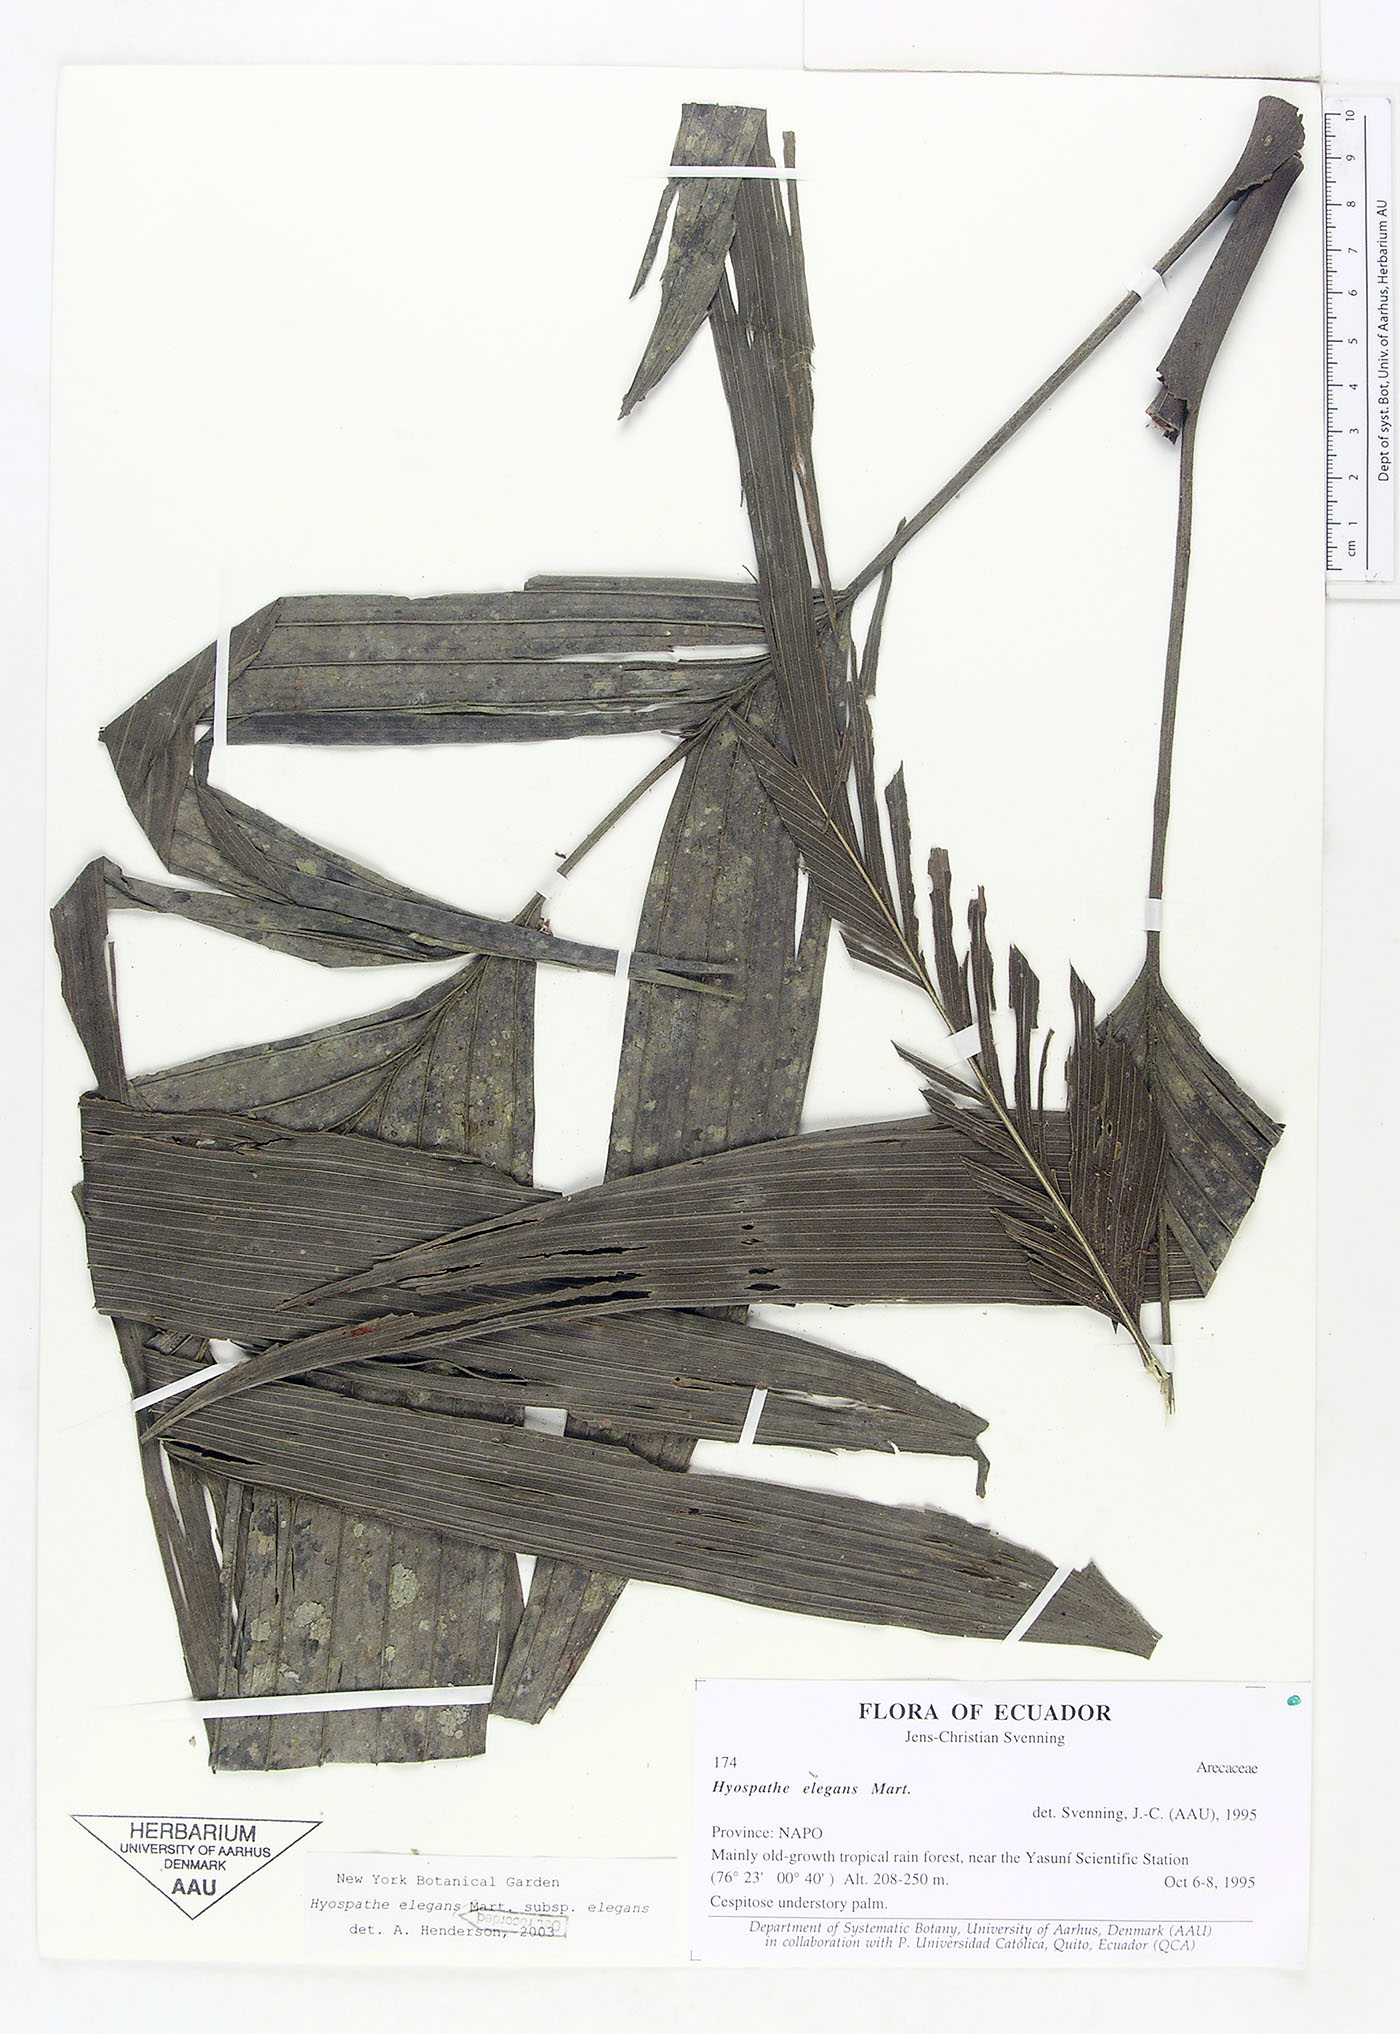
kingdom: Plantae
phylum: Tracheophyta
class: Liliopsida
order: Arecales
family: Arecaceae
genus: Hyospathe
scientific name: Hyospathe elegans
